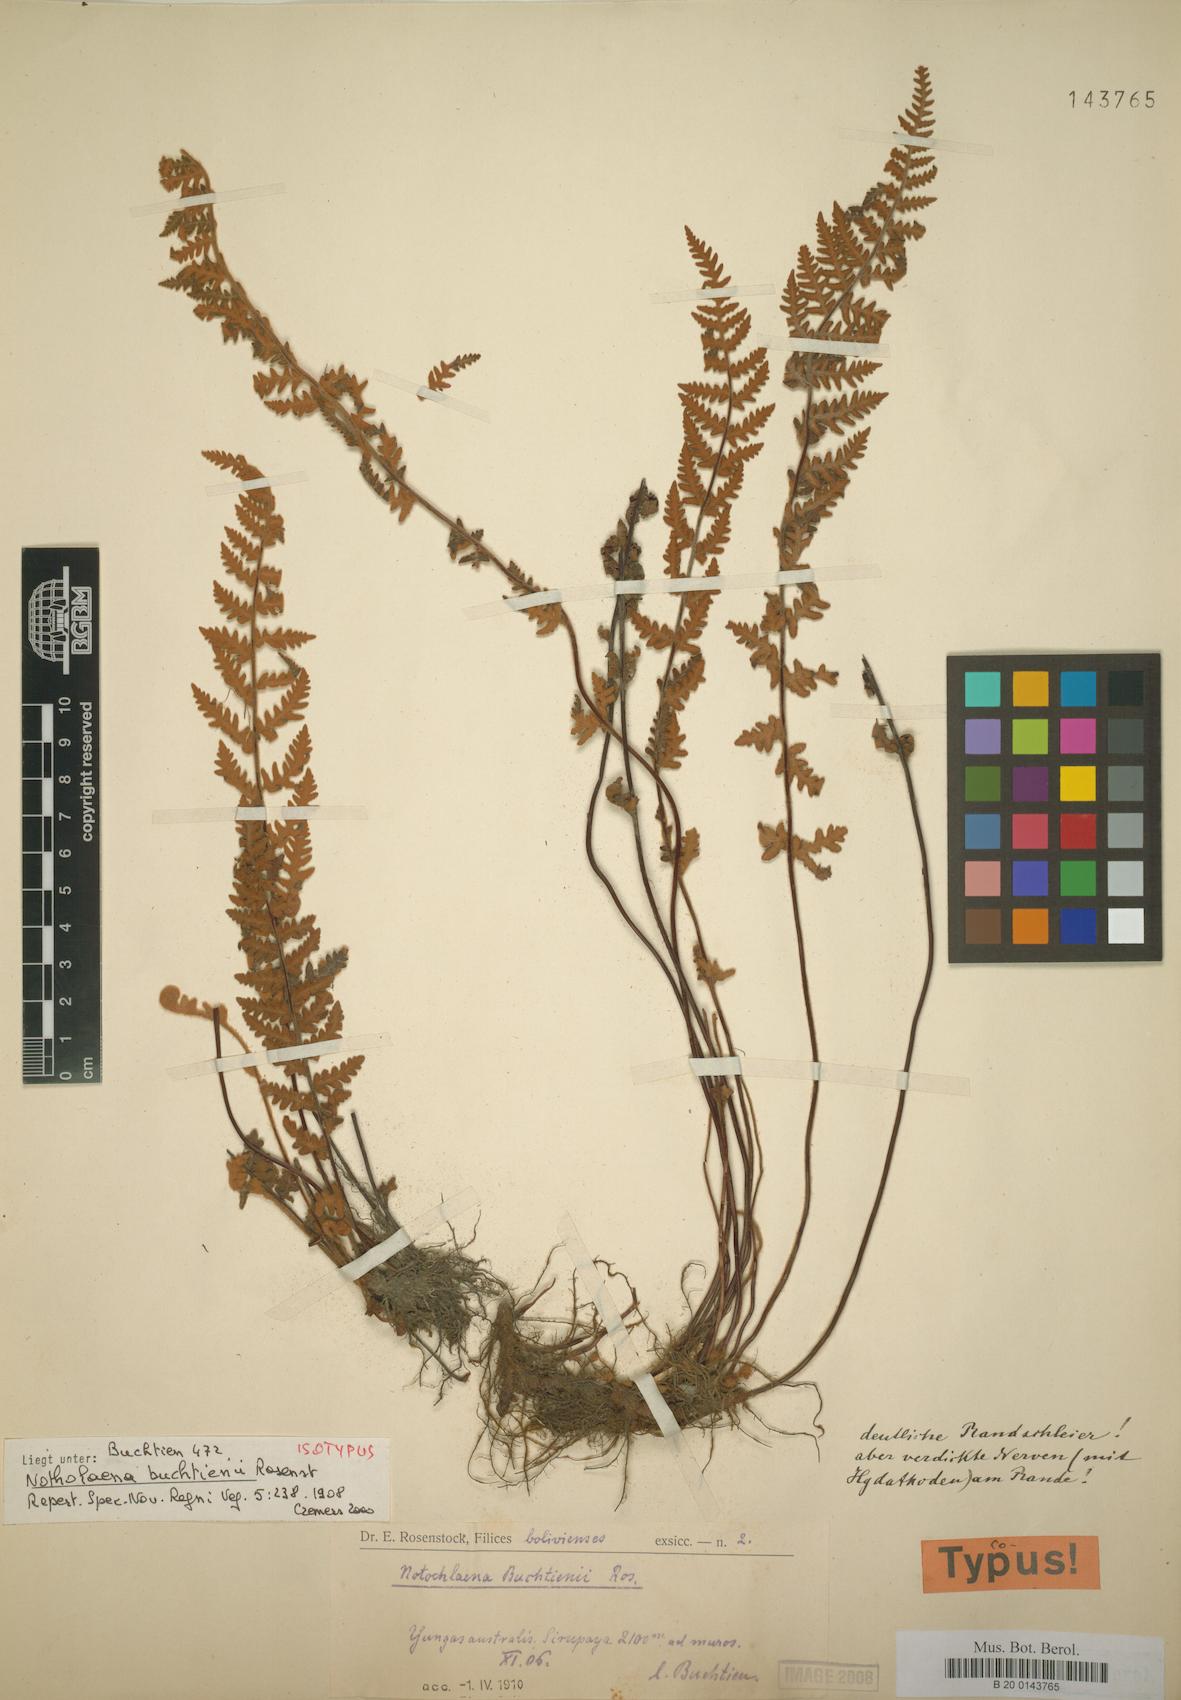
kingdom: Plantae
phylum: Tracheophyta
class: Polypodiopsida
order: Polypodiales
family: Pteridaceae
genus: Cheilanthes
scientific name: Cheilanthes buchtienii
